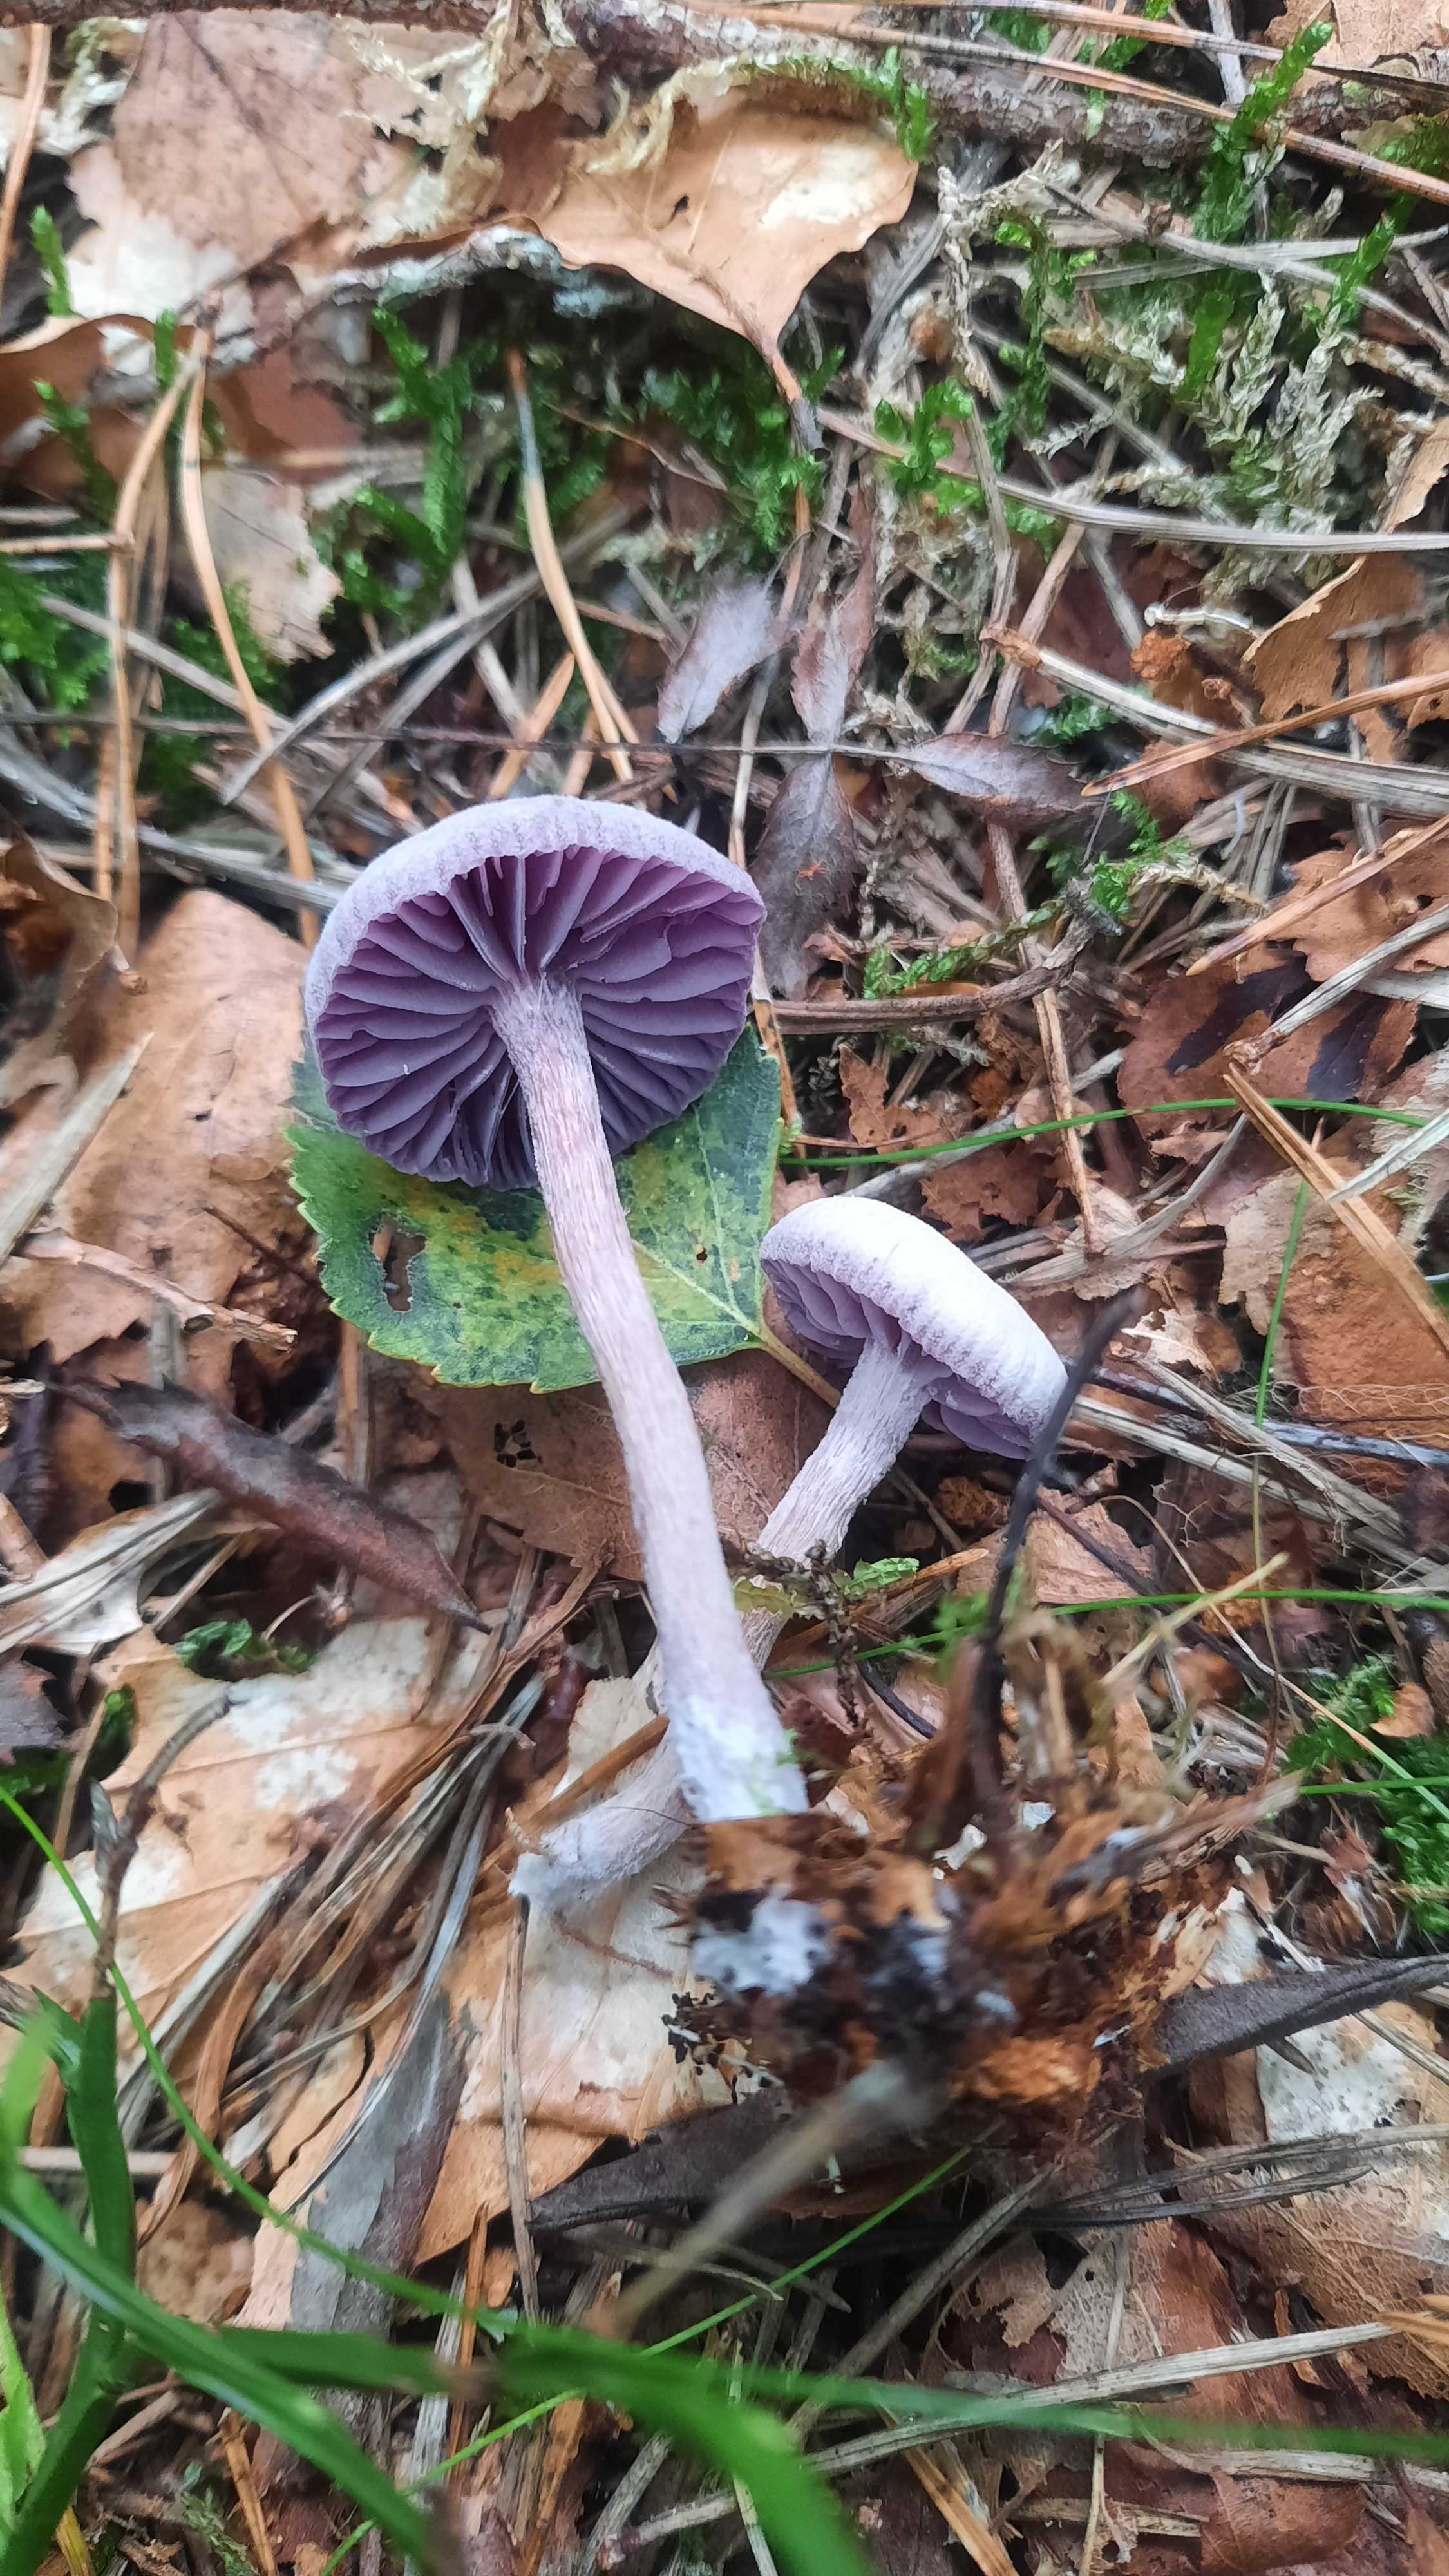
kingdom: Fungi
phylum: Basidiomycota
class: Agaricomycetes
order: Agaricales
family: Hydnangiaceae
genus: Laccaria
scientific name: Laccaria amethystina
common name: violet ametysthat
